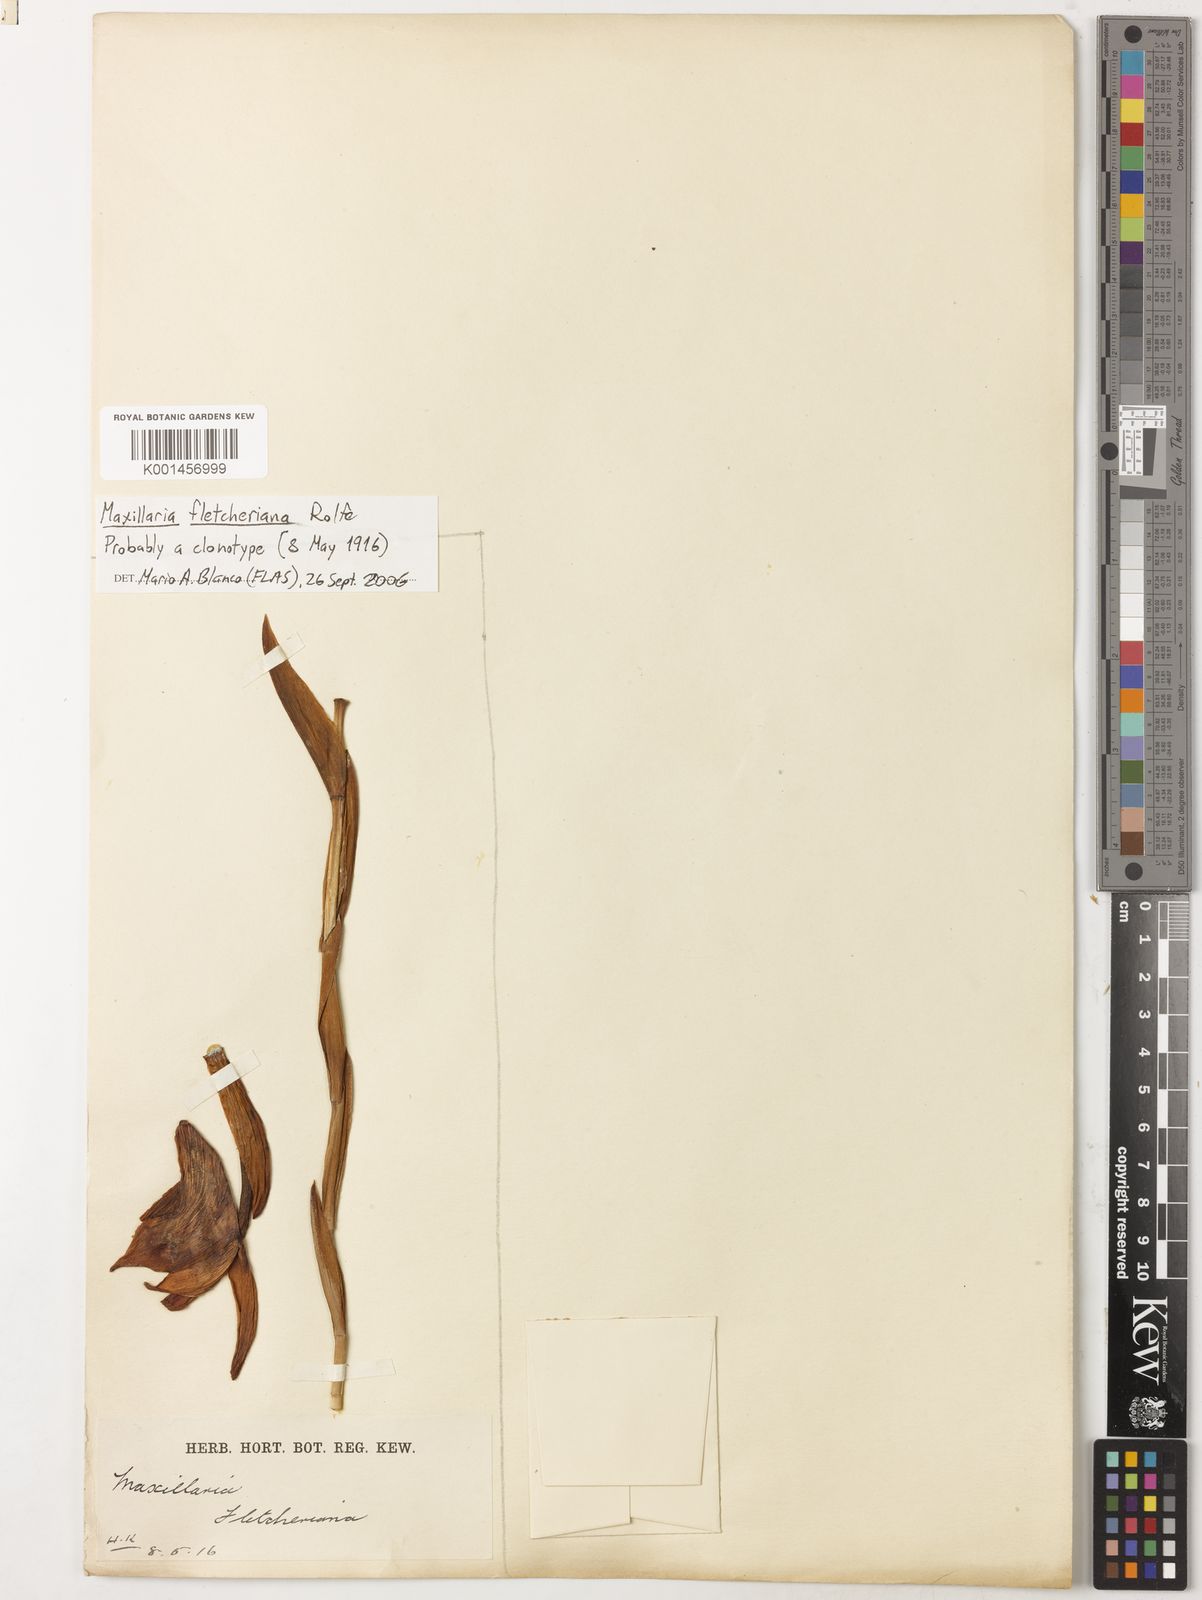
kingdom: Plantae
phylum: Tracheophyta
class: Liliopsida
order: Asparagales
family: Orchidaceae
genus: Maxillaria
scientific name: Maxillaria fletcheriana
